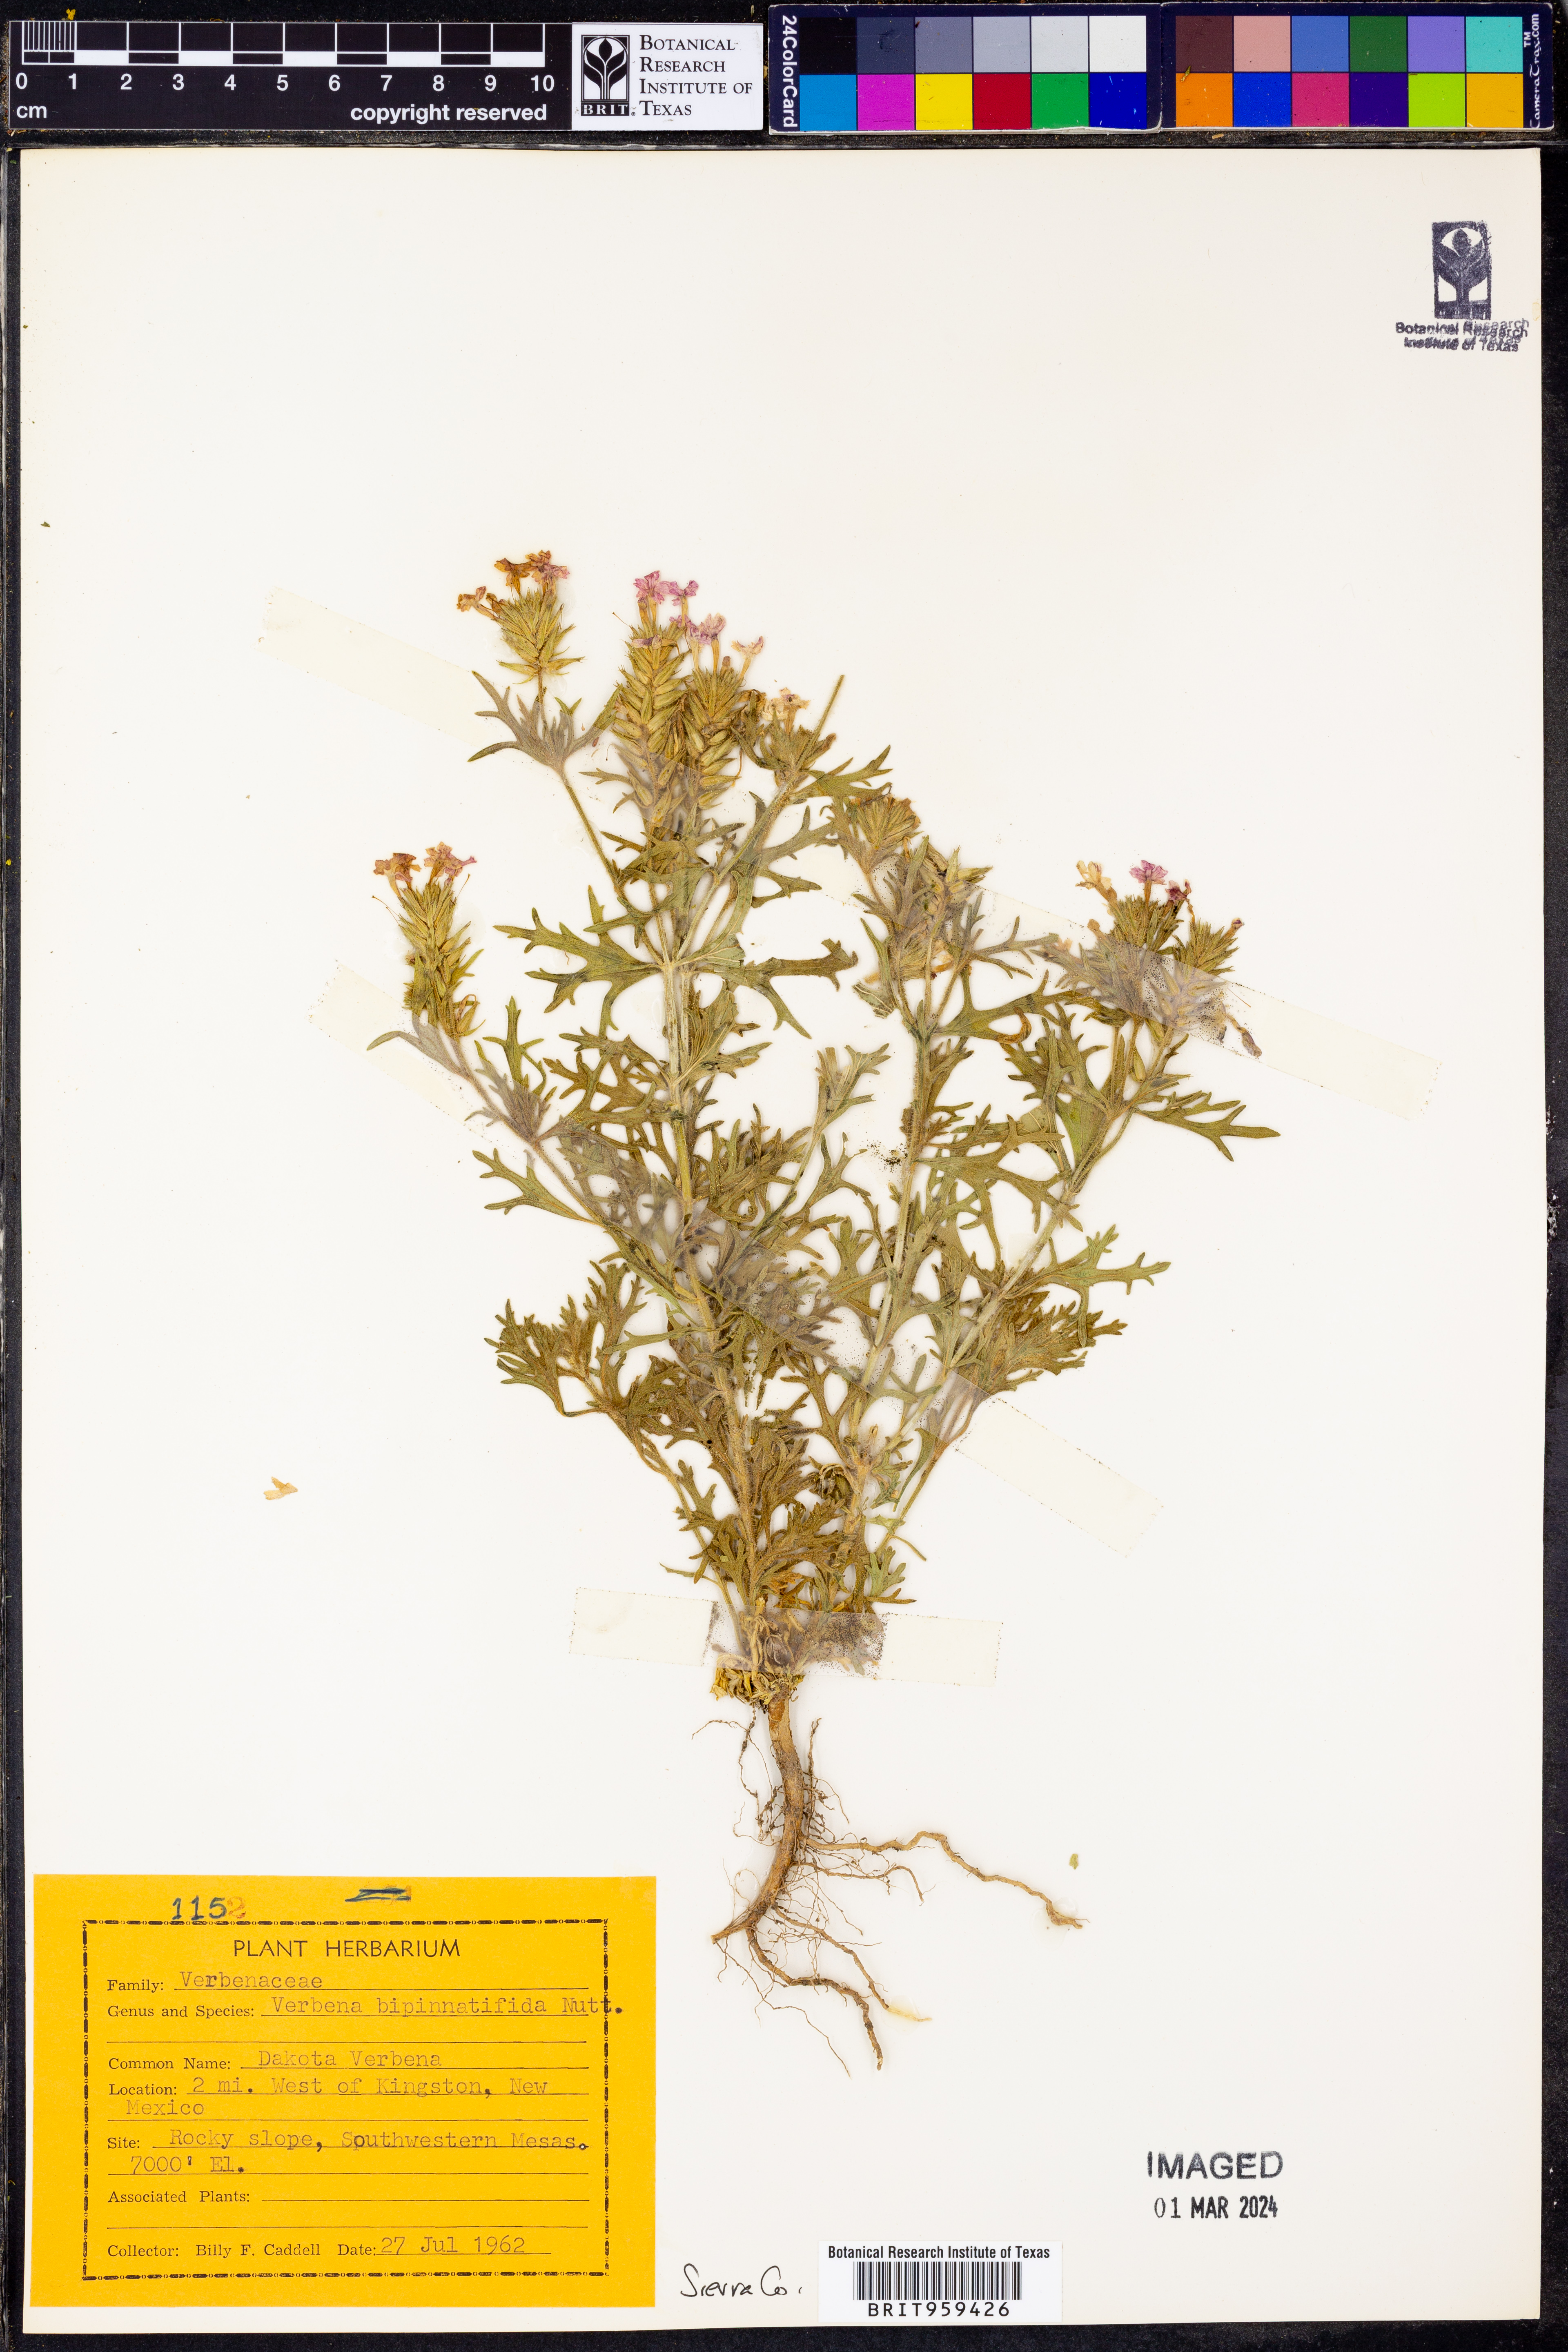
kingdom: Plantae
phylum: Tracheophyta
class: Magnoliopsida
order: Lamiales
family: Verbenaceae
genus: Verbena
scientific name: Verbena bipinnatifida
